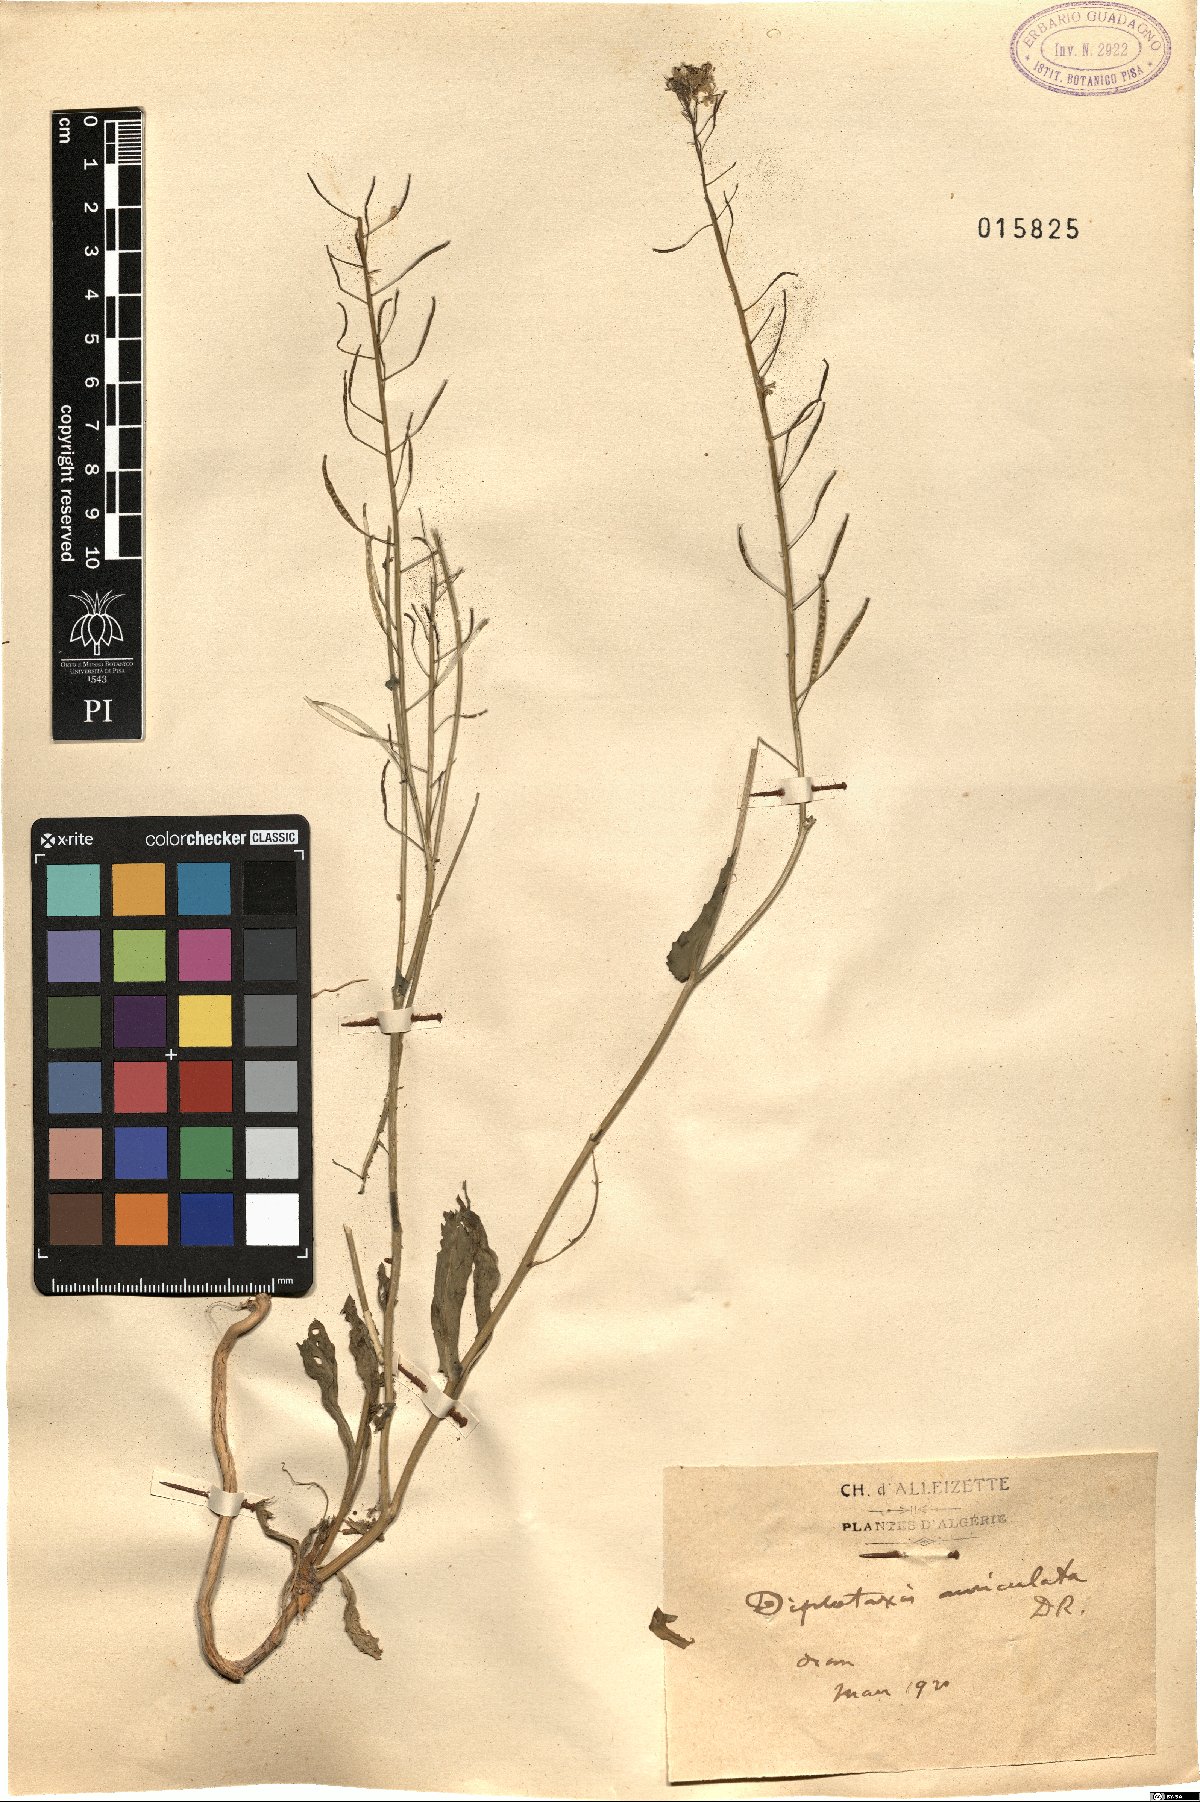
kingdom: Plantae
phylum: Tracheophyta
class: Magnoliopsida
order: Brassicales
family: Brassicaceae
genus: Diplotaxis
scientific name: Diplotaxis tenuisiliqua
